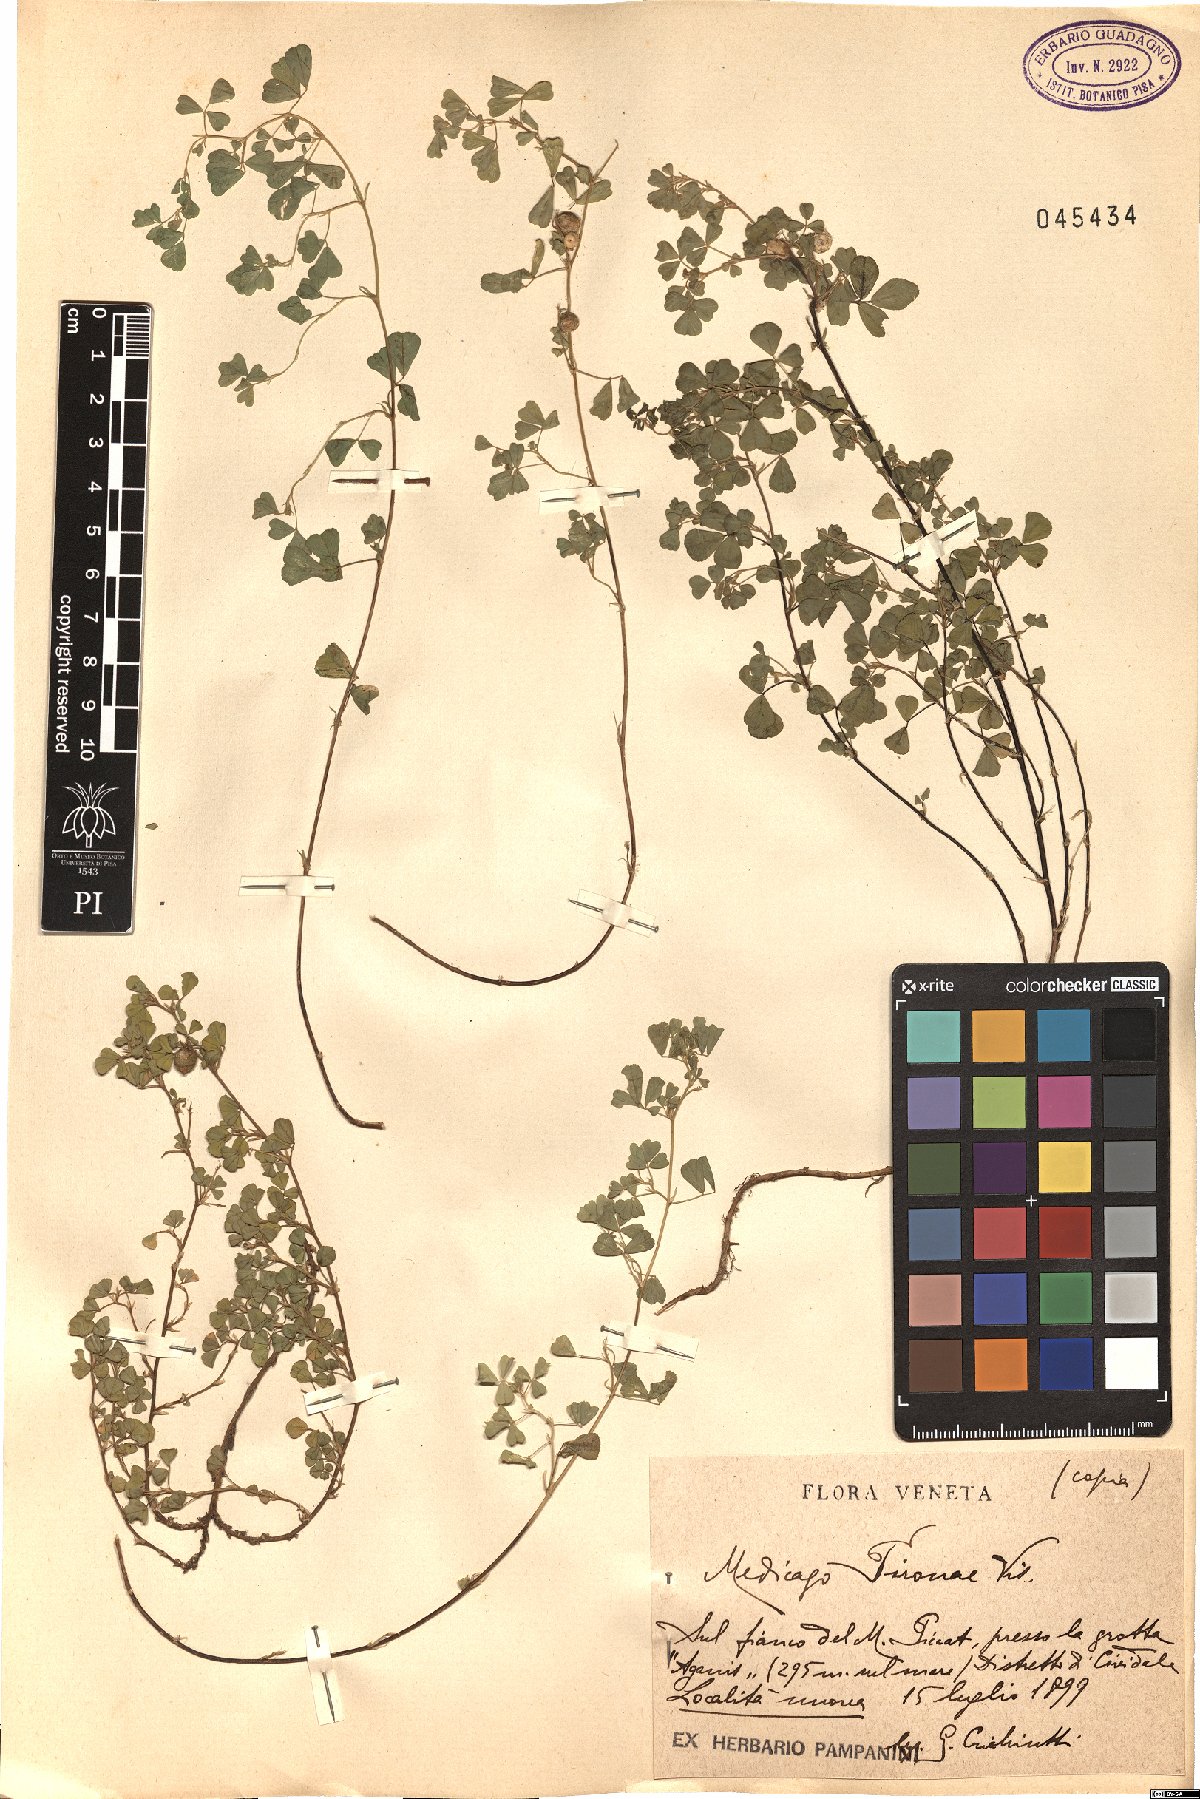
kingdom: Plantae
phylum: Tracheophyta
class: Magnoliopsida
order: Fabales
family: Fabaceae
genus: Medicago
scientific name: Medicago pironae
